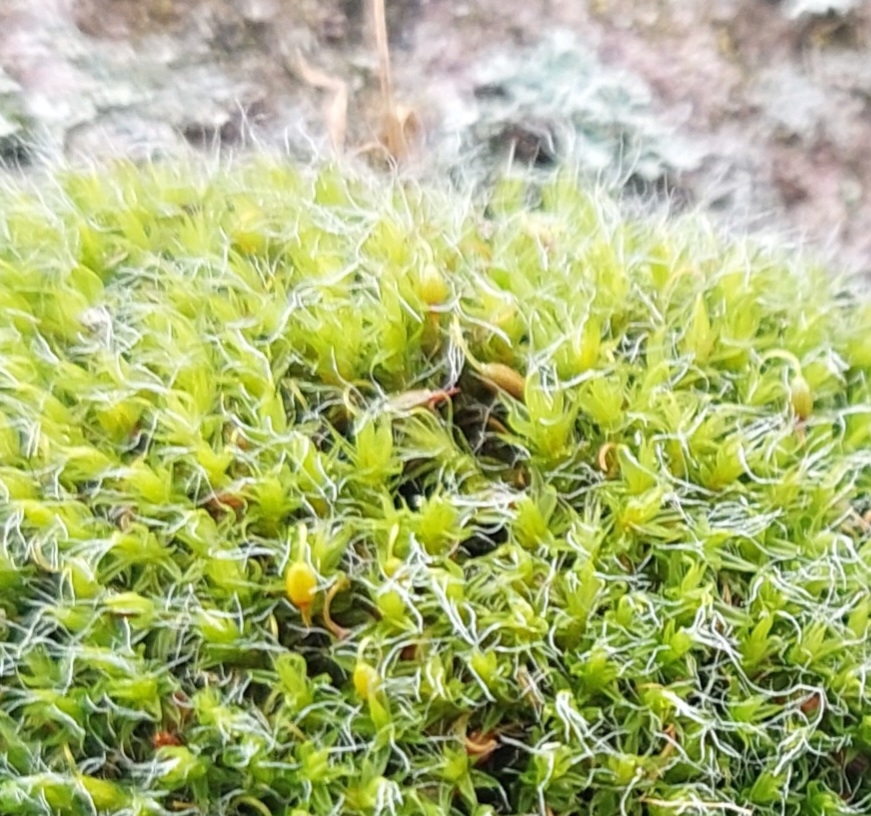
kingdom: Plantae
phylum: Bryophyta
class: Bryopsida
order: Grimmiales
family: Grimmiaceae
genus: Grimmia
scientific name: Grimmia pulvinata
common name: Pude-gråmos
